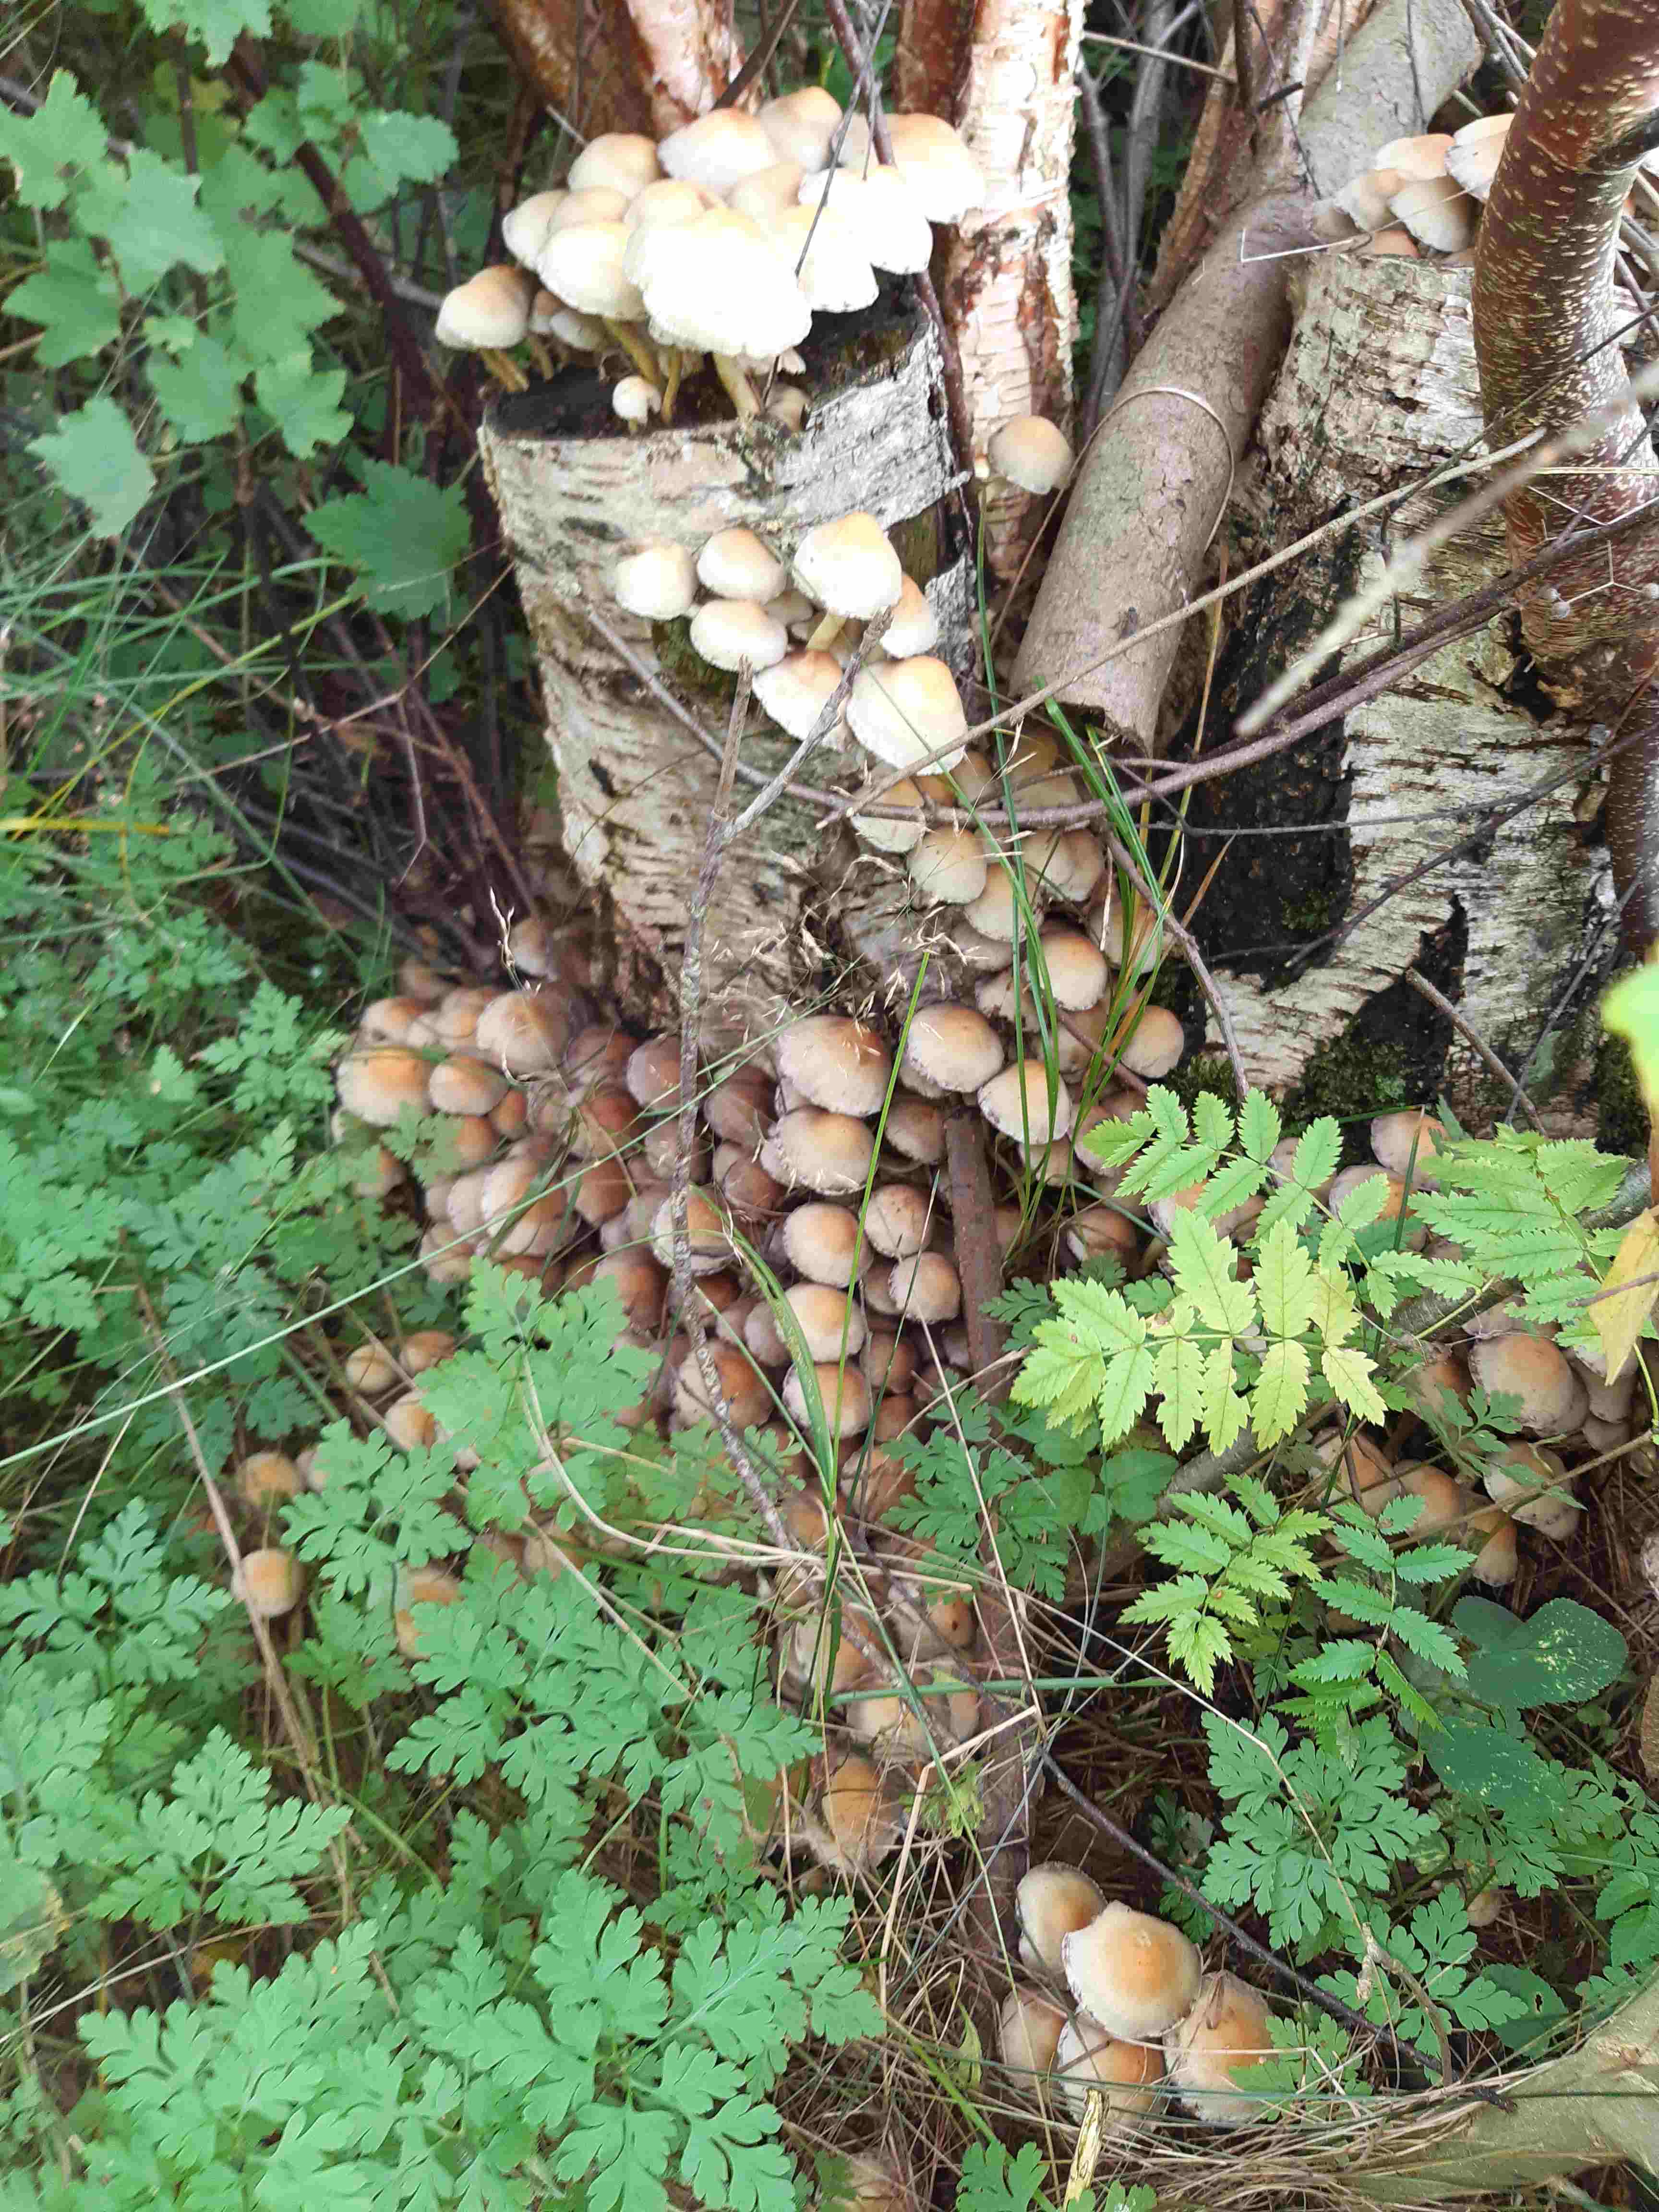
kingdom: Fungi
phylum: Basidiomycota
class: Agaricomycetes
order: Agaricales
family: Strophariaceae
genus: Hypholoma
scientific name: Hypholoma fasciculare
